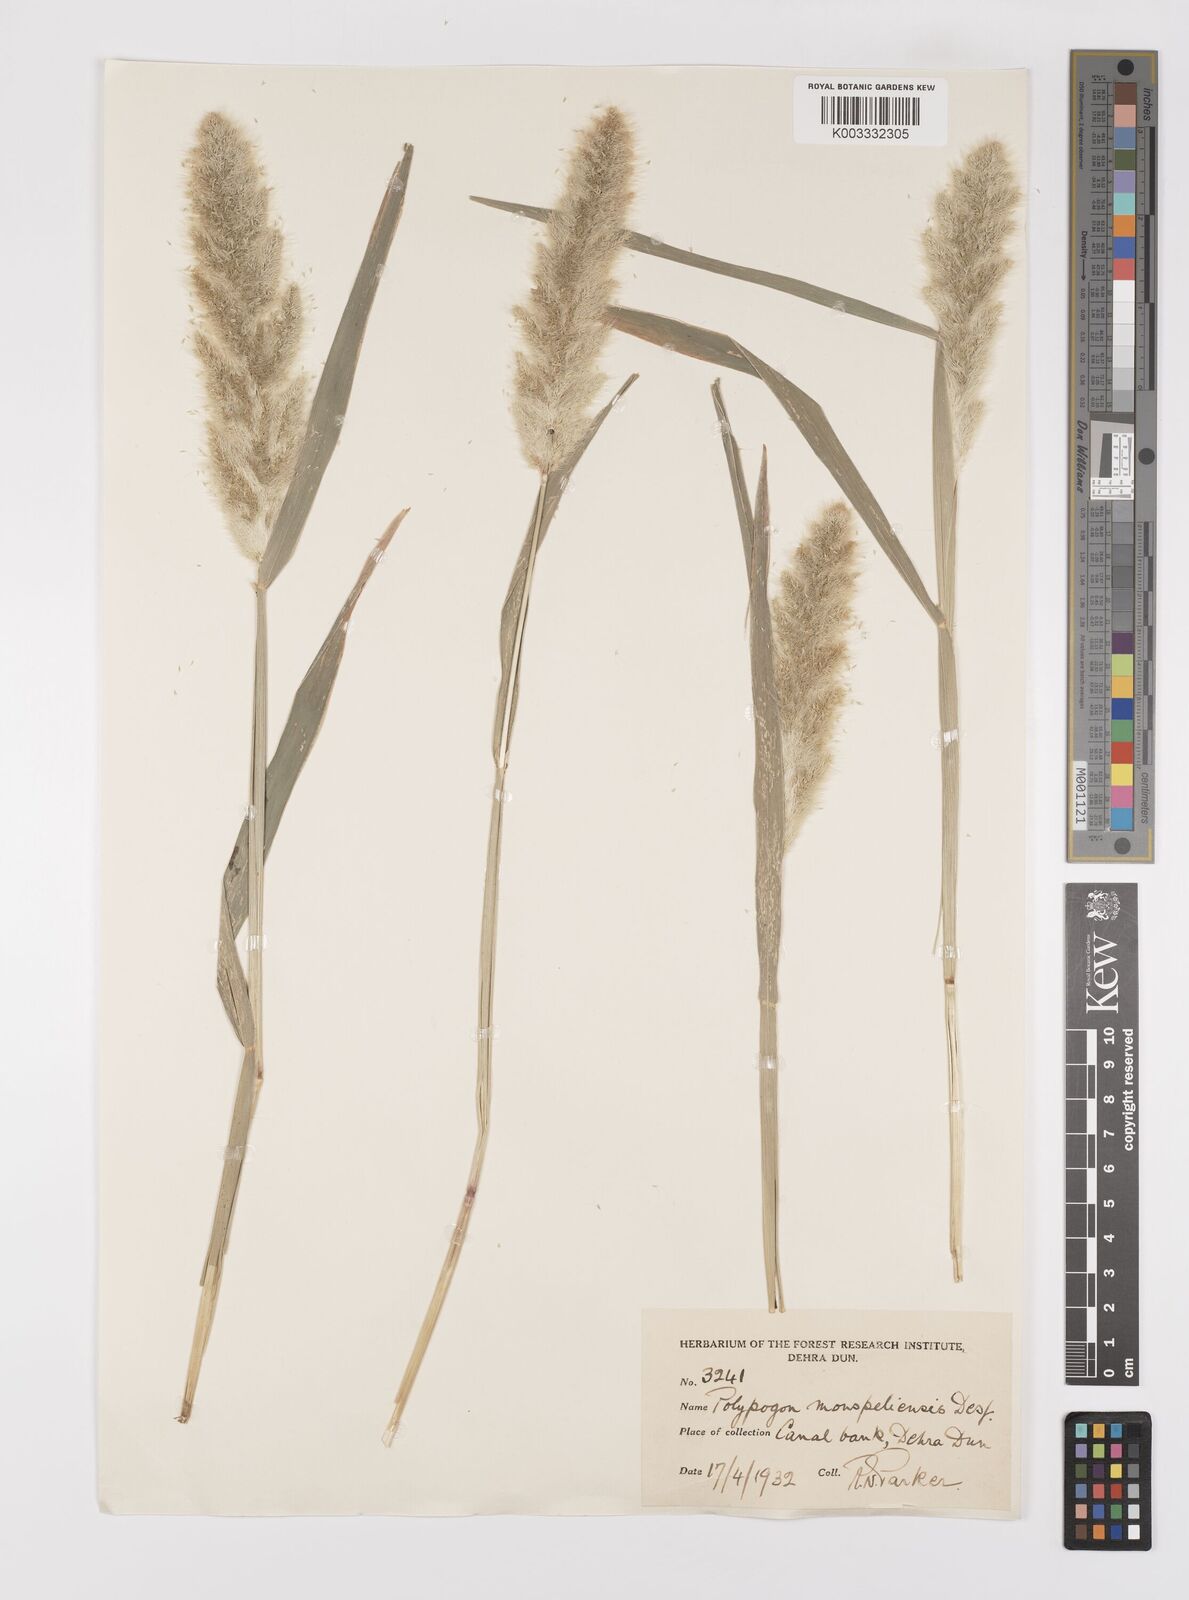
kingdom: Plantae
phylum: Tracheophyta
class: Liliopsida
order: Poales
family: Poaceae
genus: Polypogon
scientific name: Polypogon monspeliensis
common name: Annual rabbitsfoot grass
